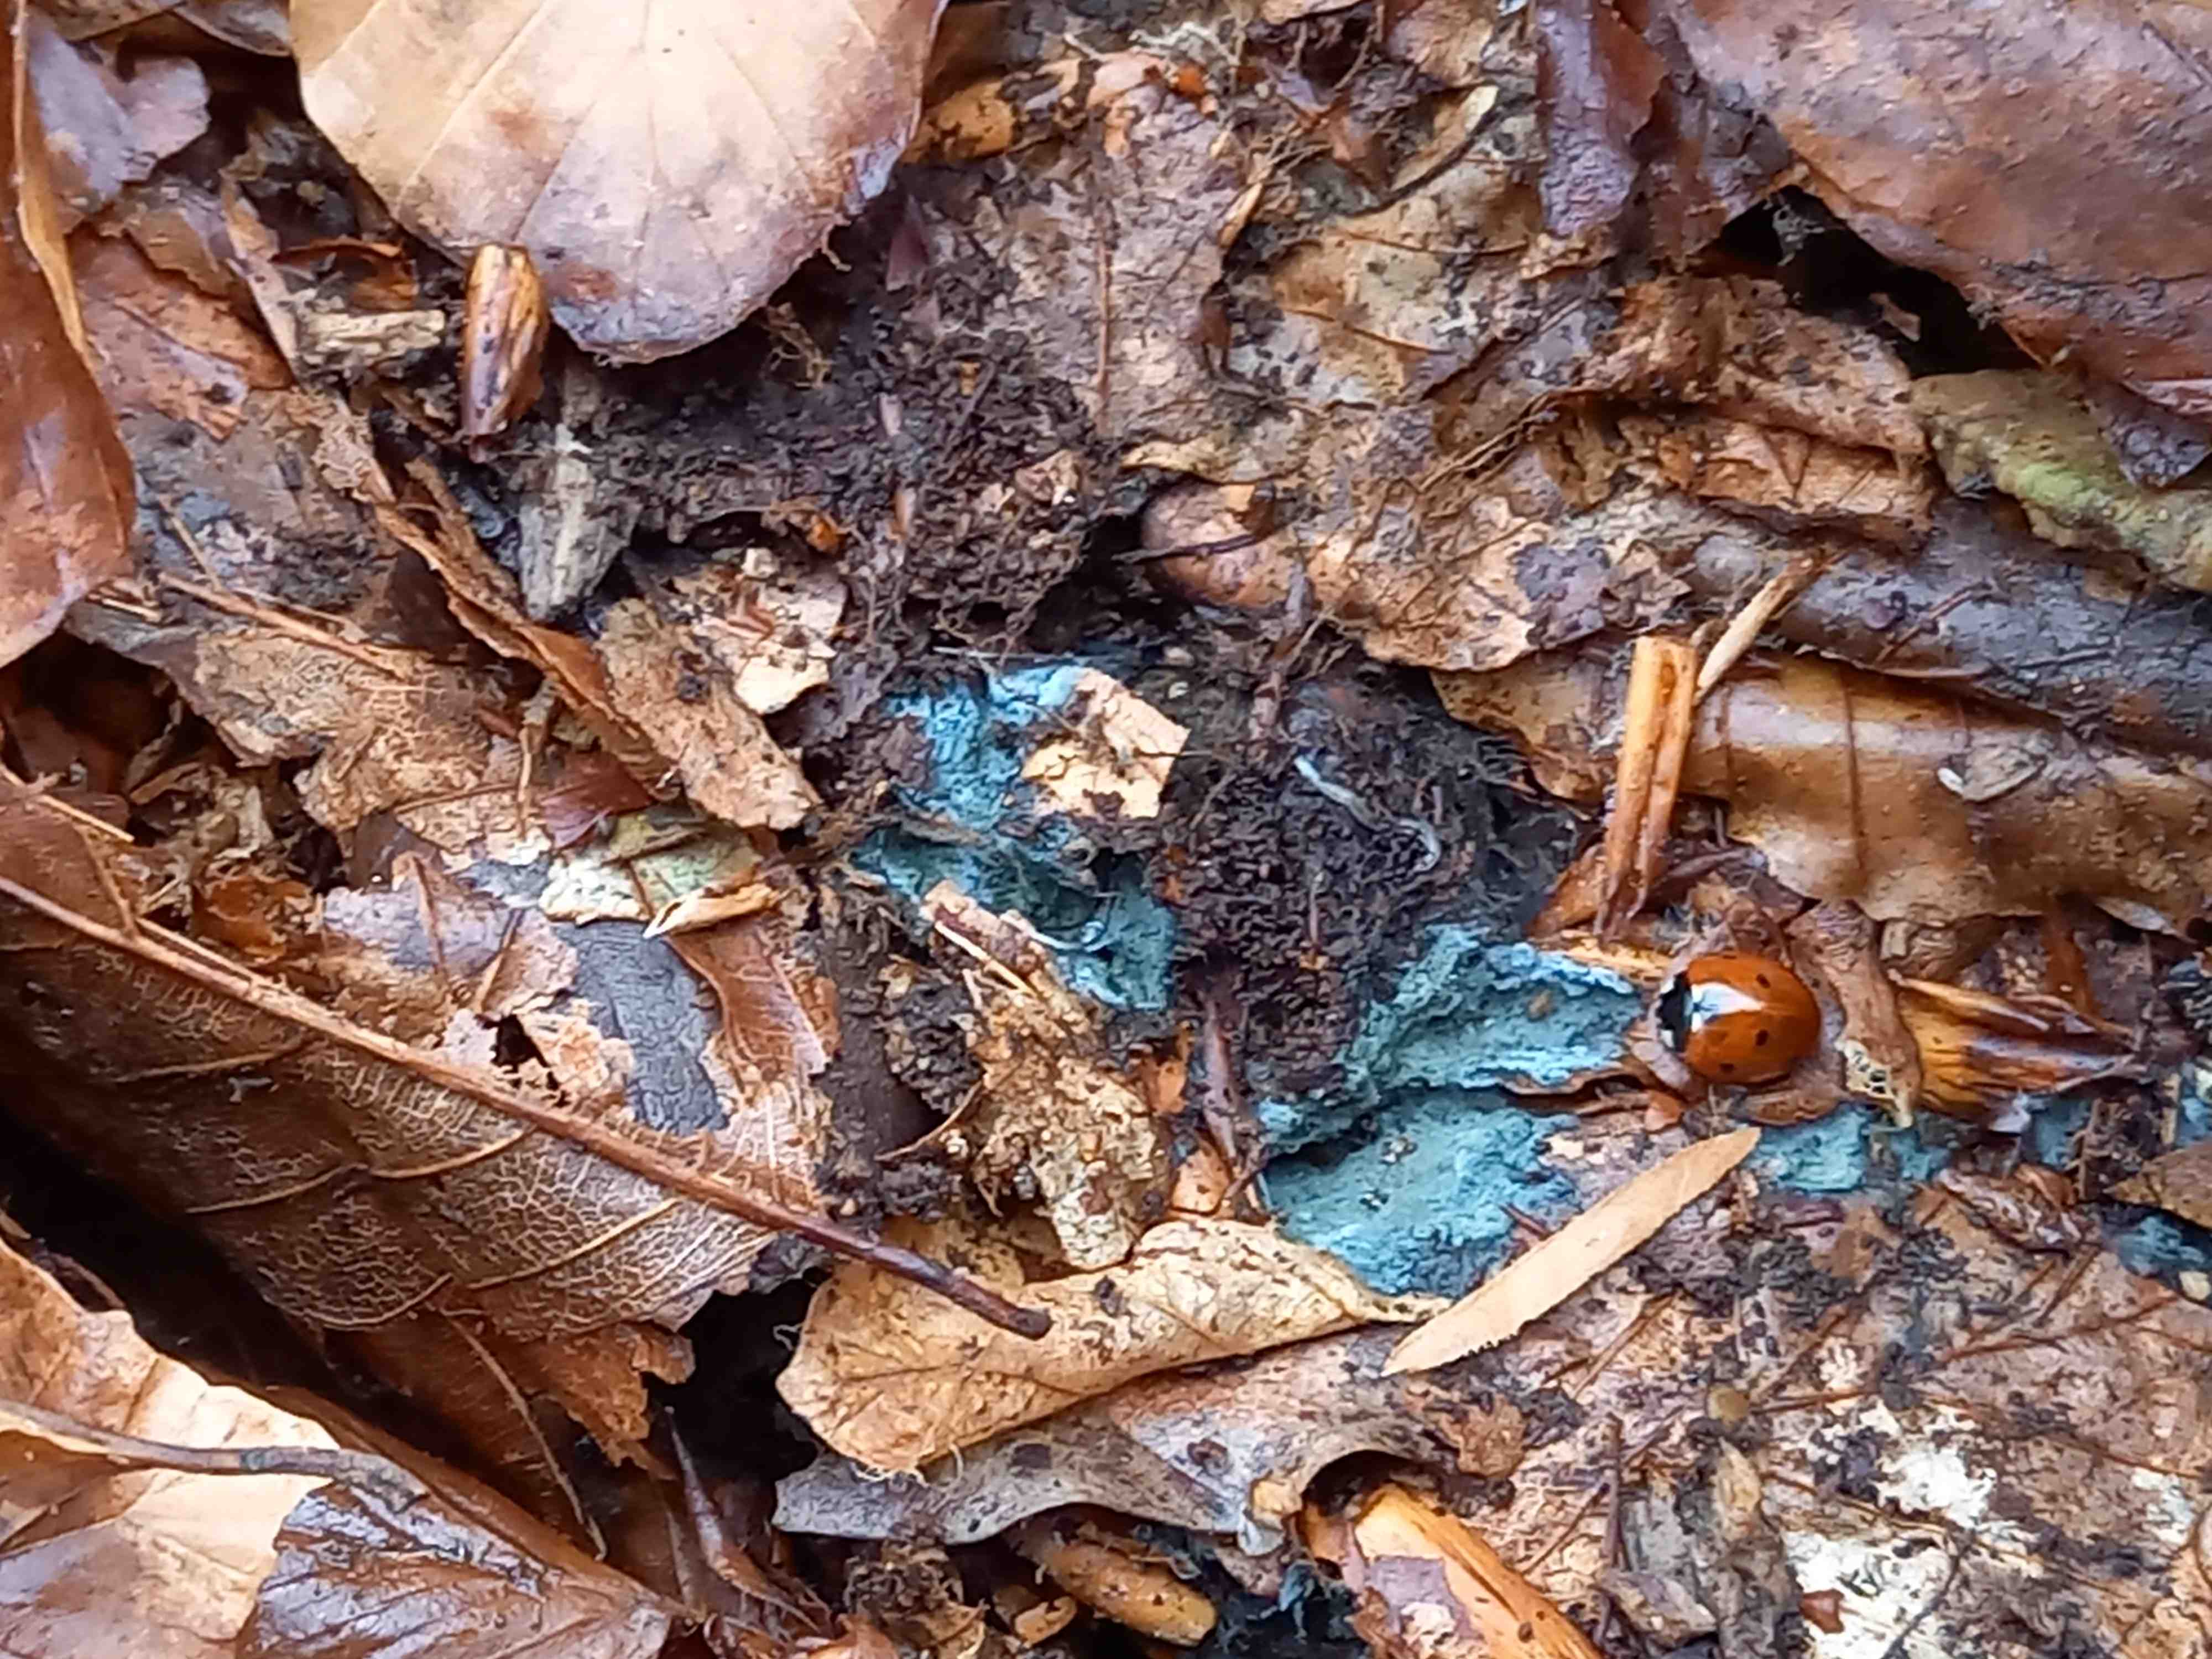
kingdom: Fungi
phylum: Basidiomycota
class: Agaricomycetes
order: Atheliales
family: Atheliaceae
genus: Byssocorticium
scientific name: Byssocorticium
